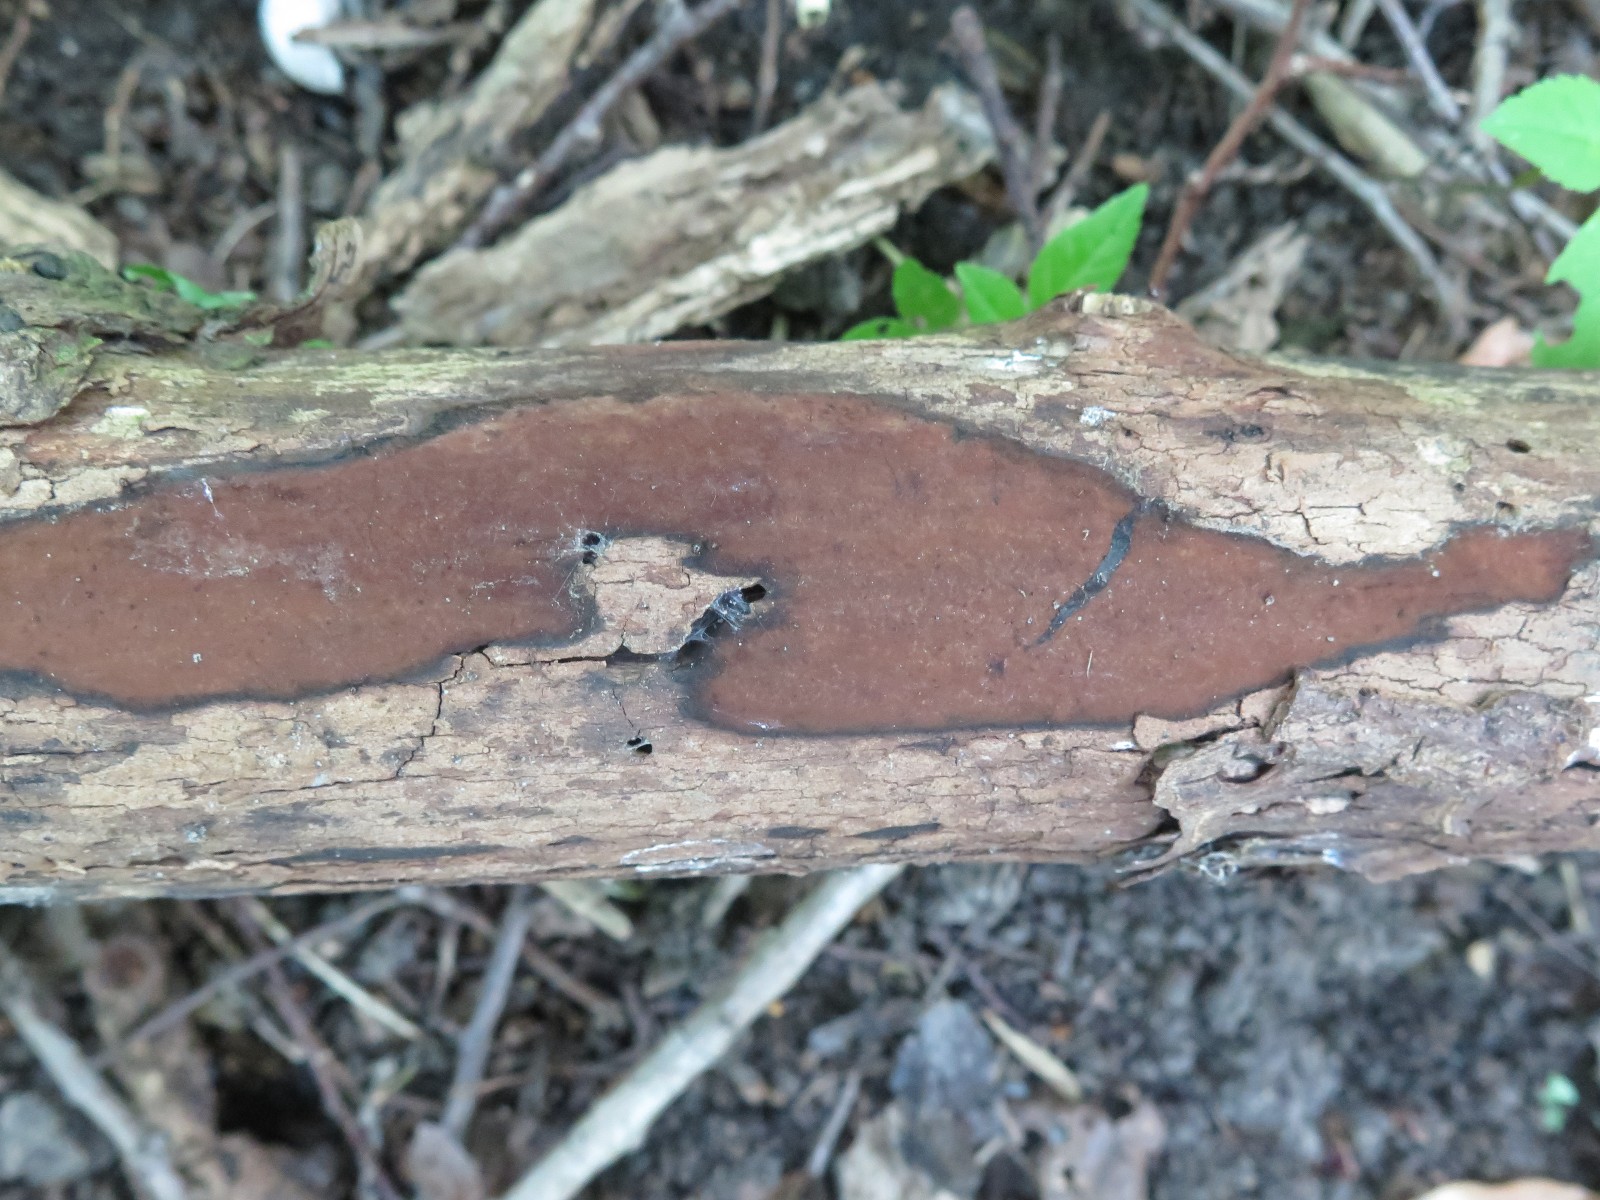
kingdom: Fungi
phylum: Ascomycota
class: Sordariomycetes
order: Xylariales
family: Hypoxylaceae
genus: Hypoxylon
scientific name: Hypoxylon petriniae
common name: nedsænket kulbær
